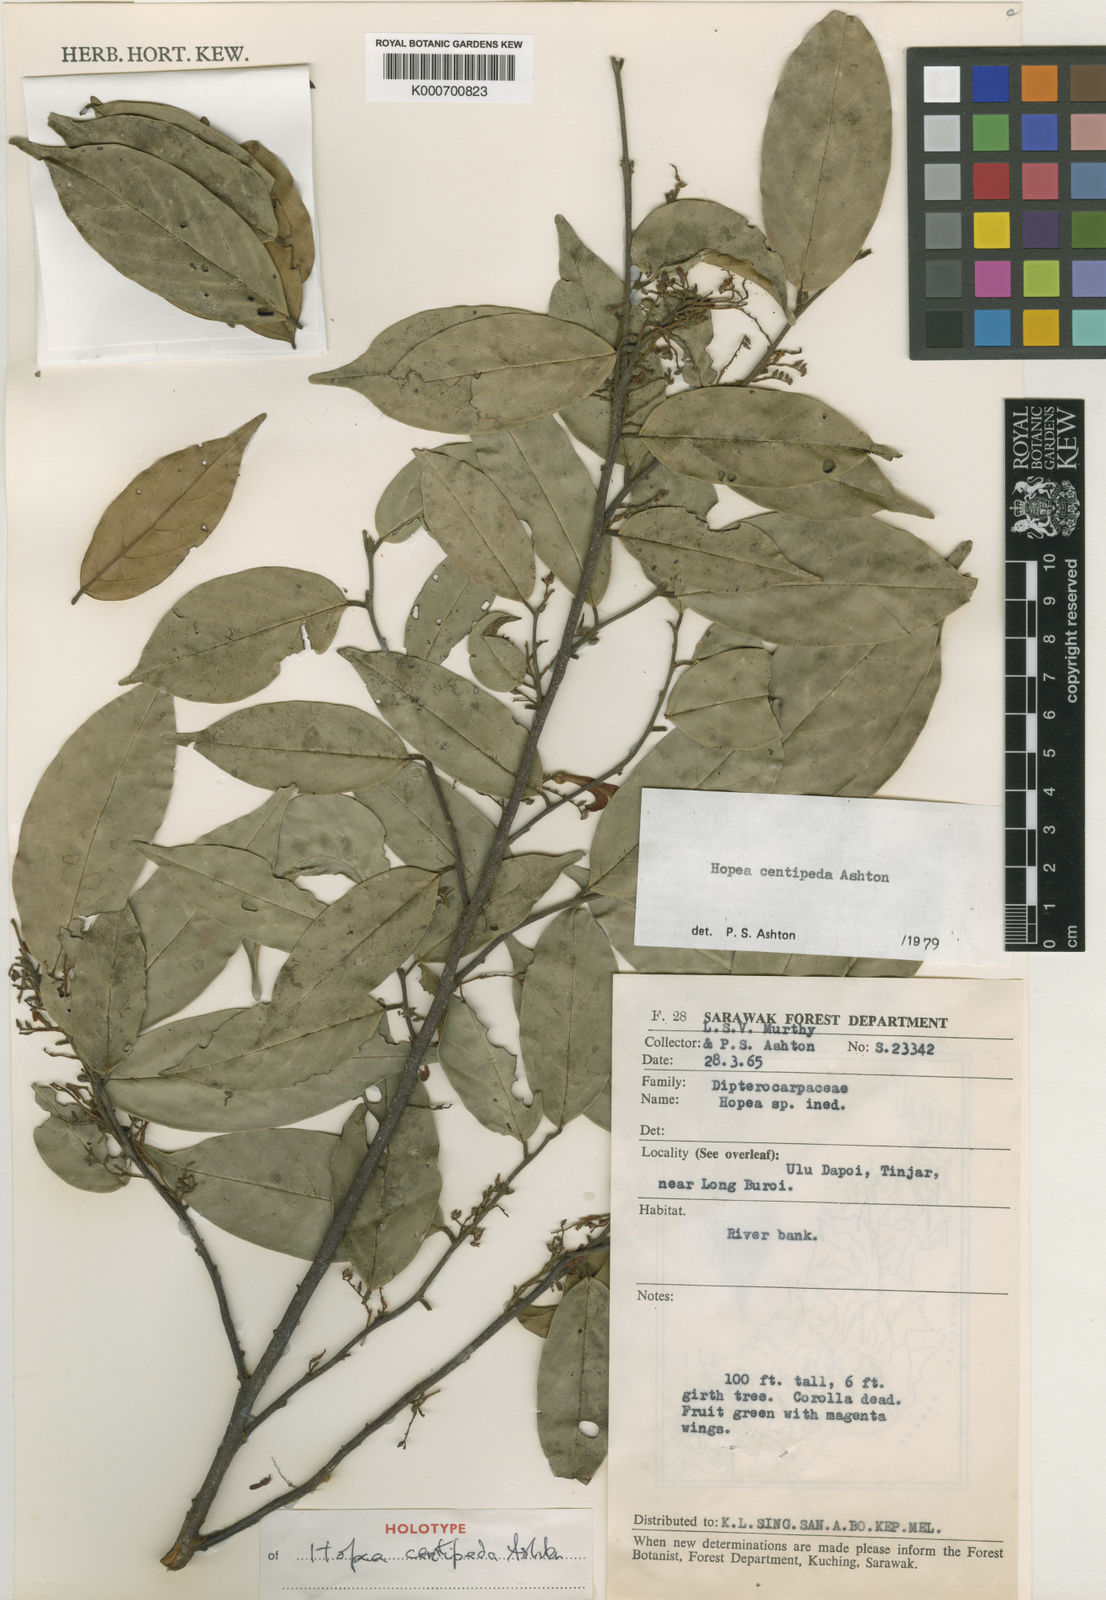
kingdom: Plantae
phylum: Tracheophyta
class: Magnoliopsida
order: Malvales
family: Dipterocarpaceae
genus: Hopea
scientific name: Hopea centipeda
